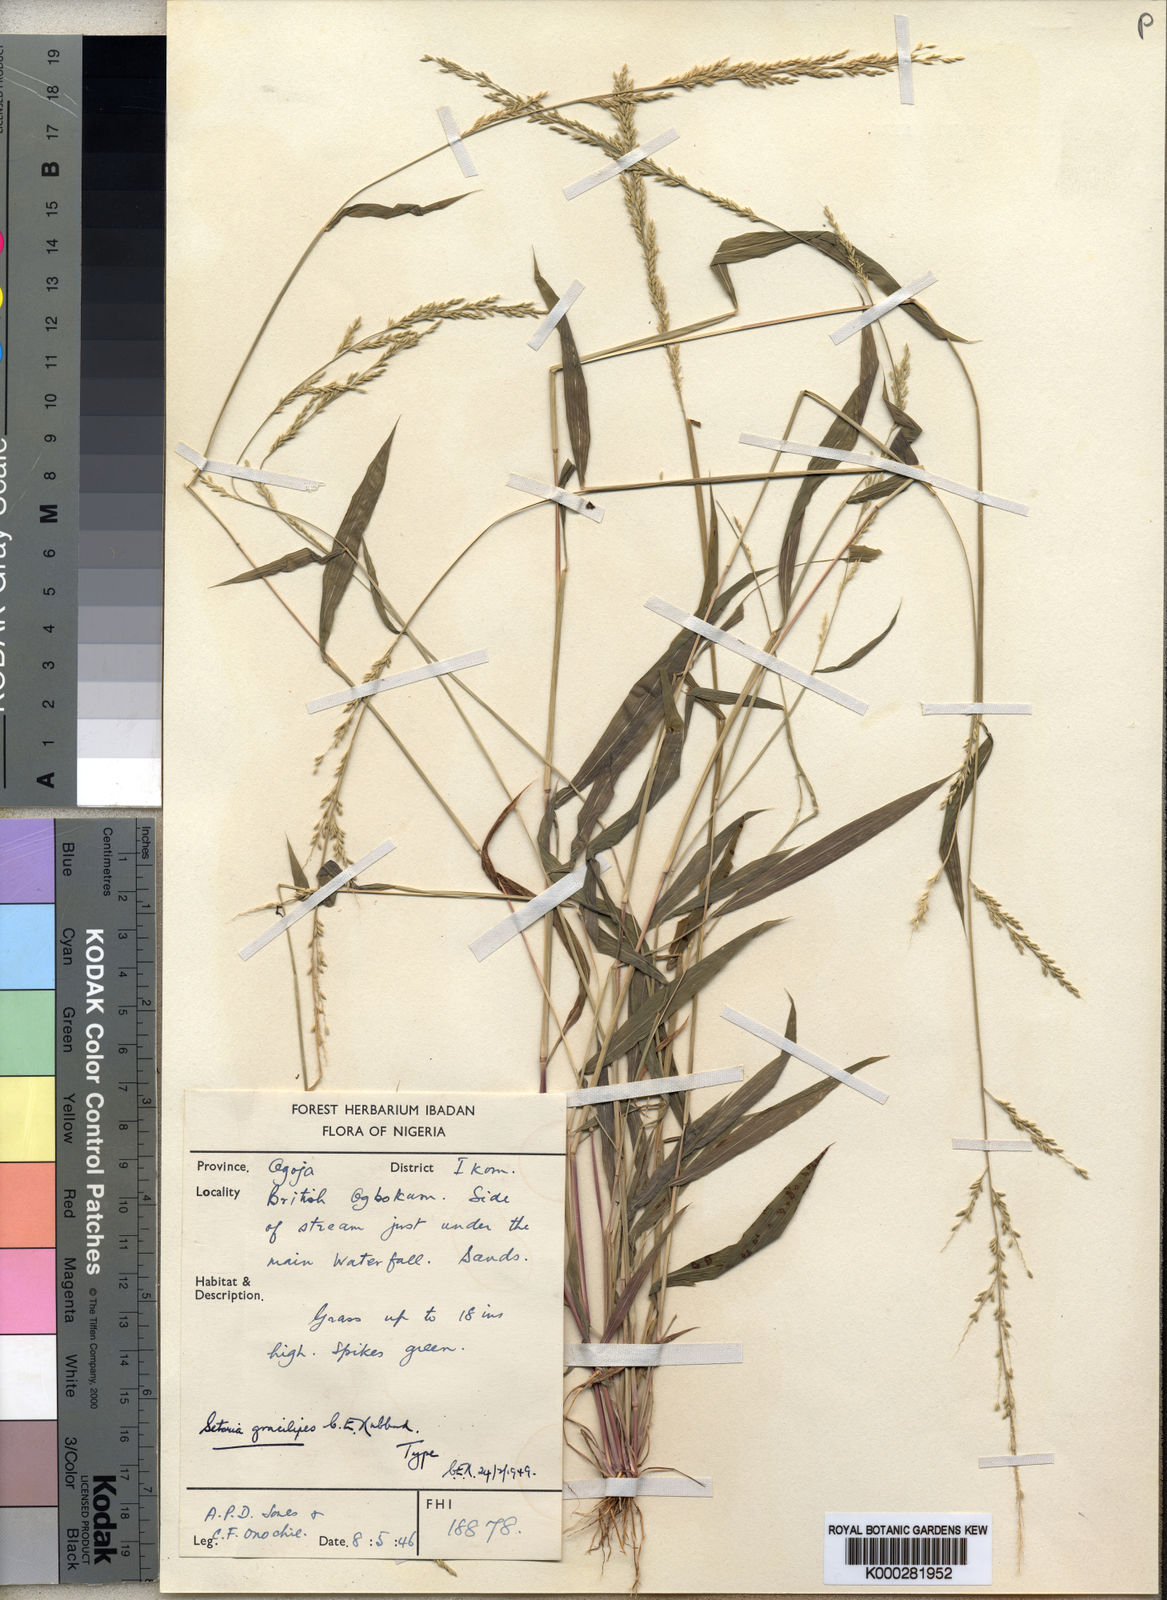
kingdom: Plantae
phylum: Tracheophyta
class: Liliopsida
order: Poales
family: Poaceae
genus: Setaria
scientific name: Setaria kagerensis
